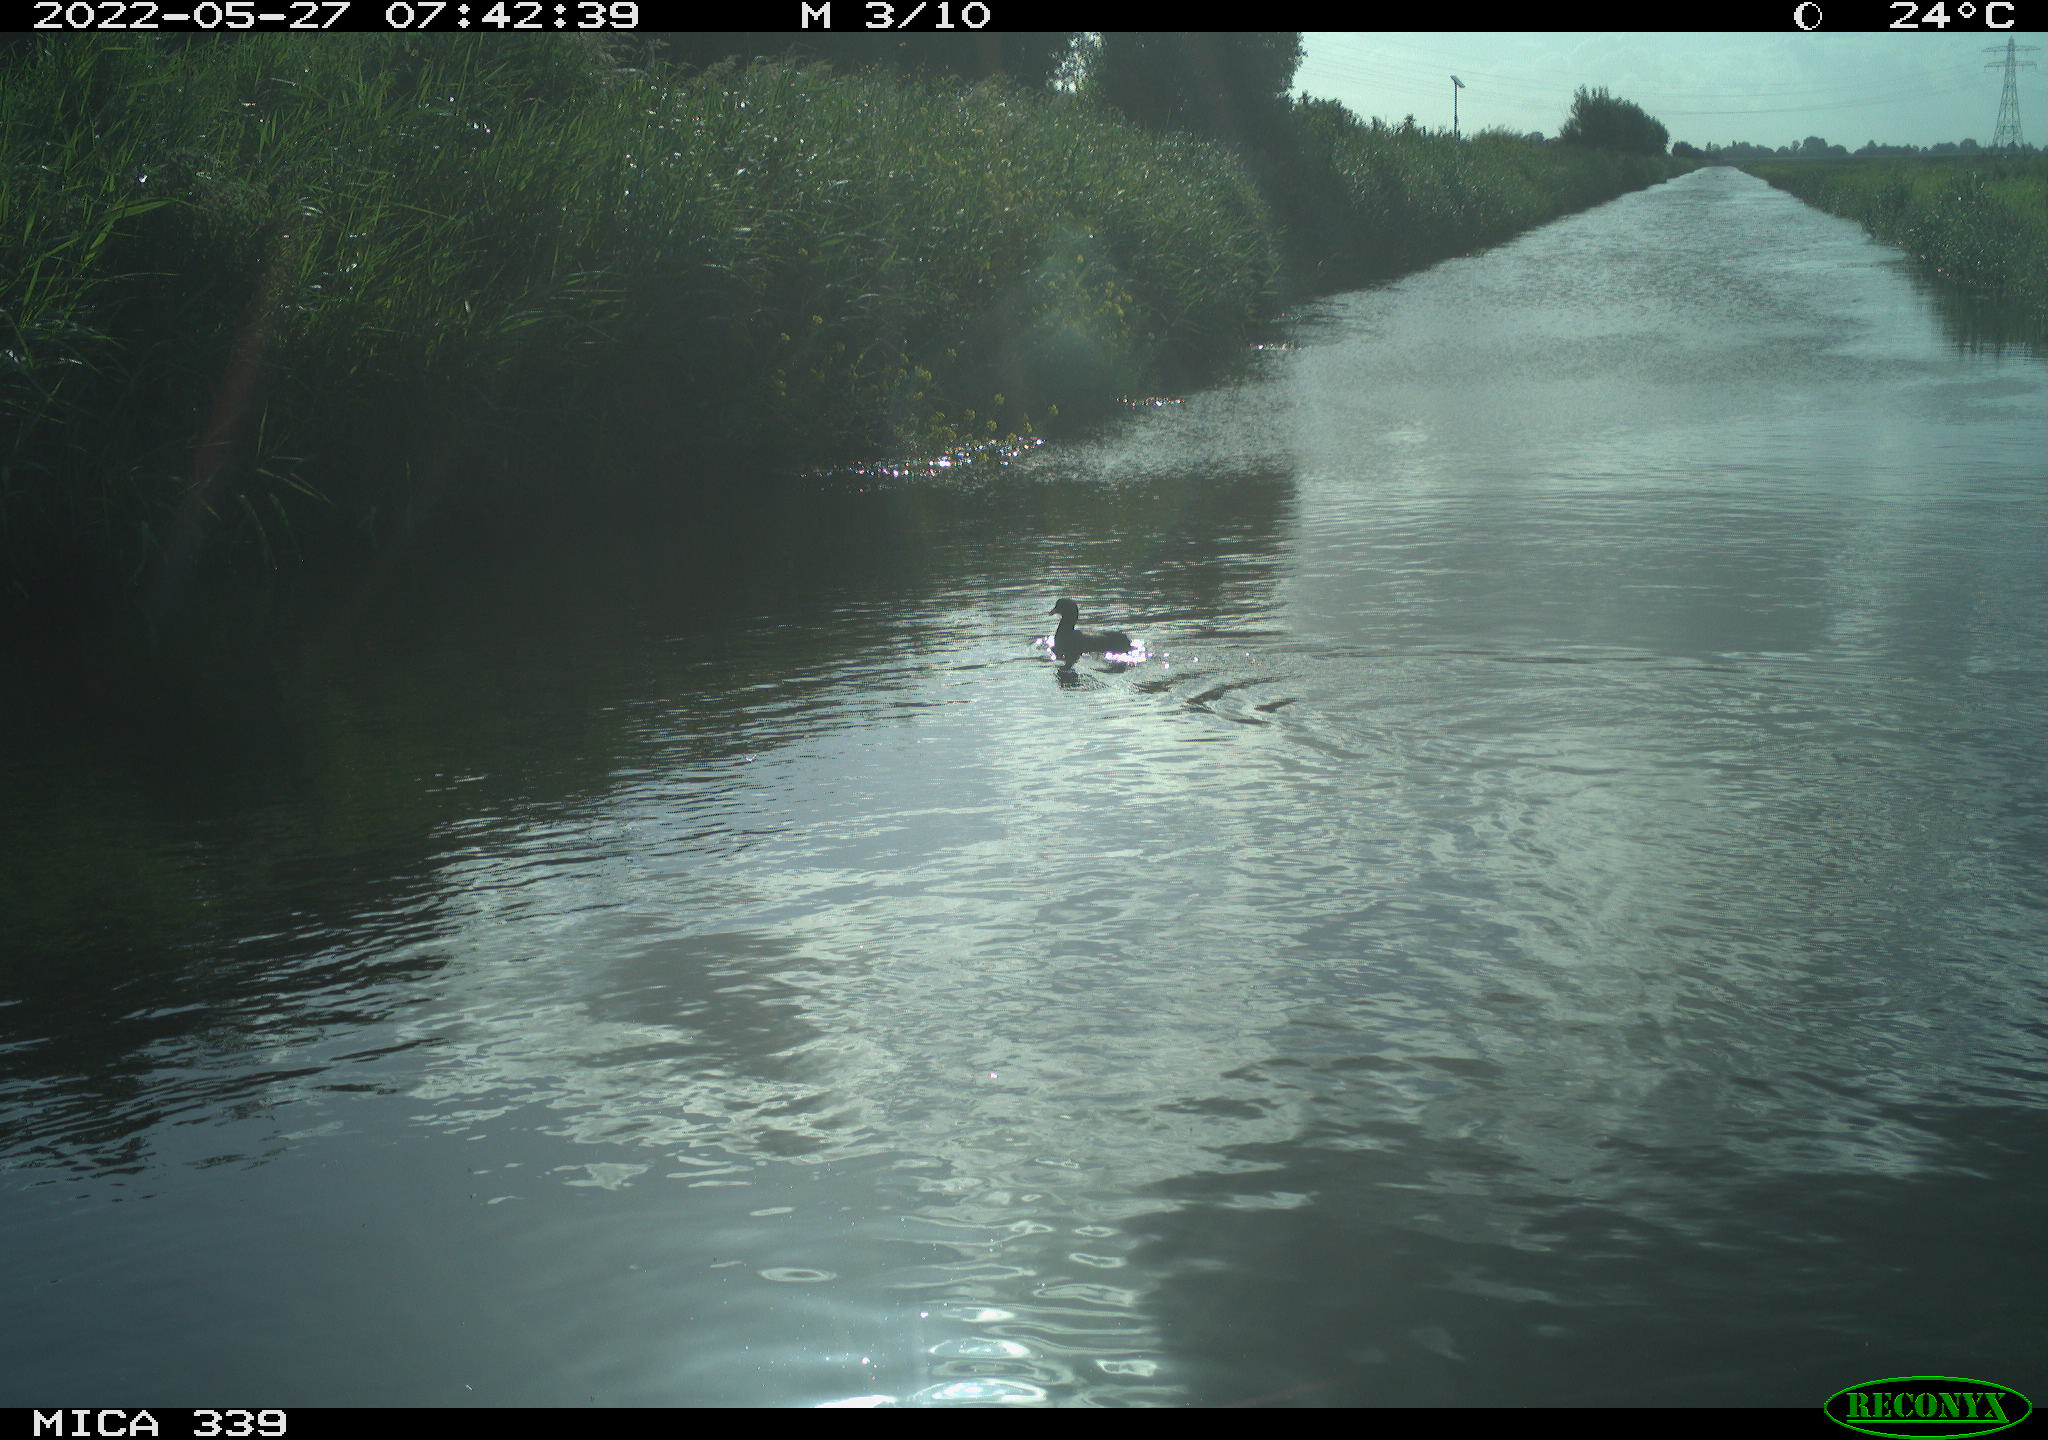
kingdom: Animalia
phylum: Chordata
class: Aves
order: Gruiformes
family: Rallidae
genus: Fulica
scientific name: Fulica atra
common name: Eurasian coot
